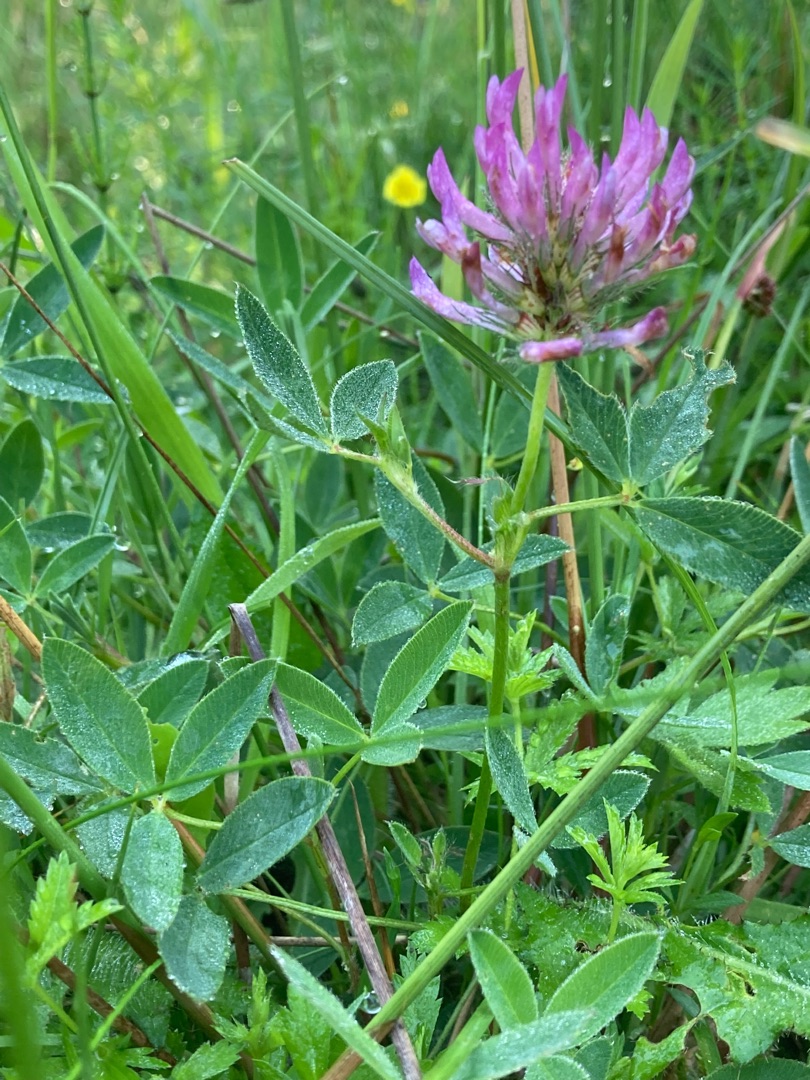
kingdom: Plantae
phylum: Tracheophyta
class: Magnoliopsida
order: Fabales
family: Fabaceae
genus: Trifolium
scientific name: Trifolium medium
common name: Bugtet kløver
